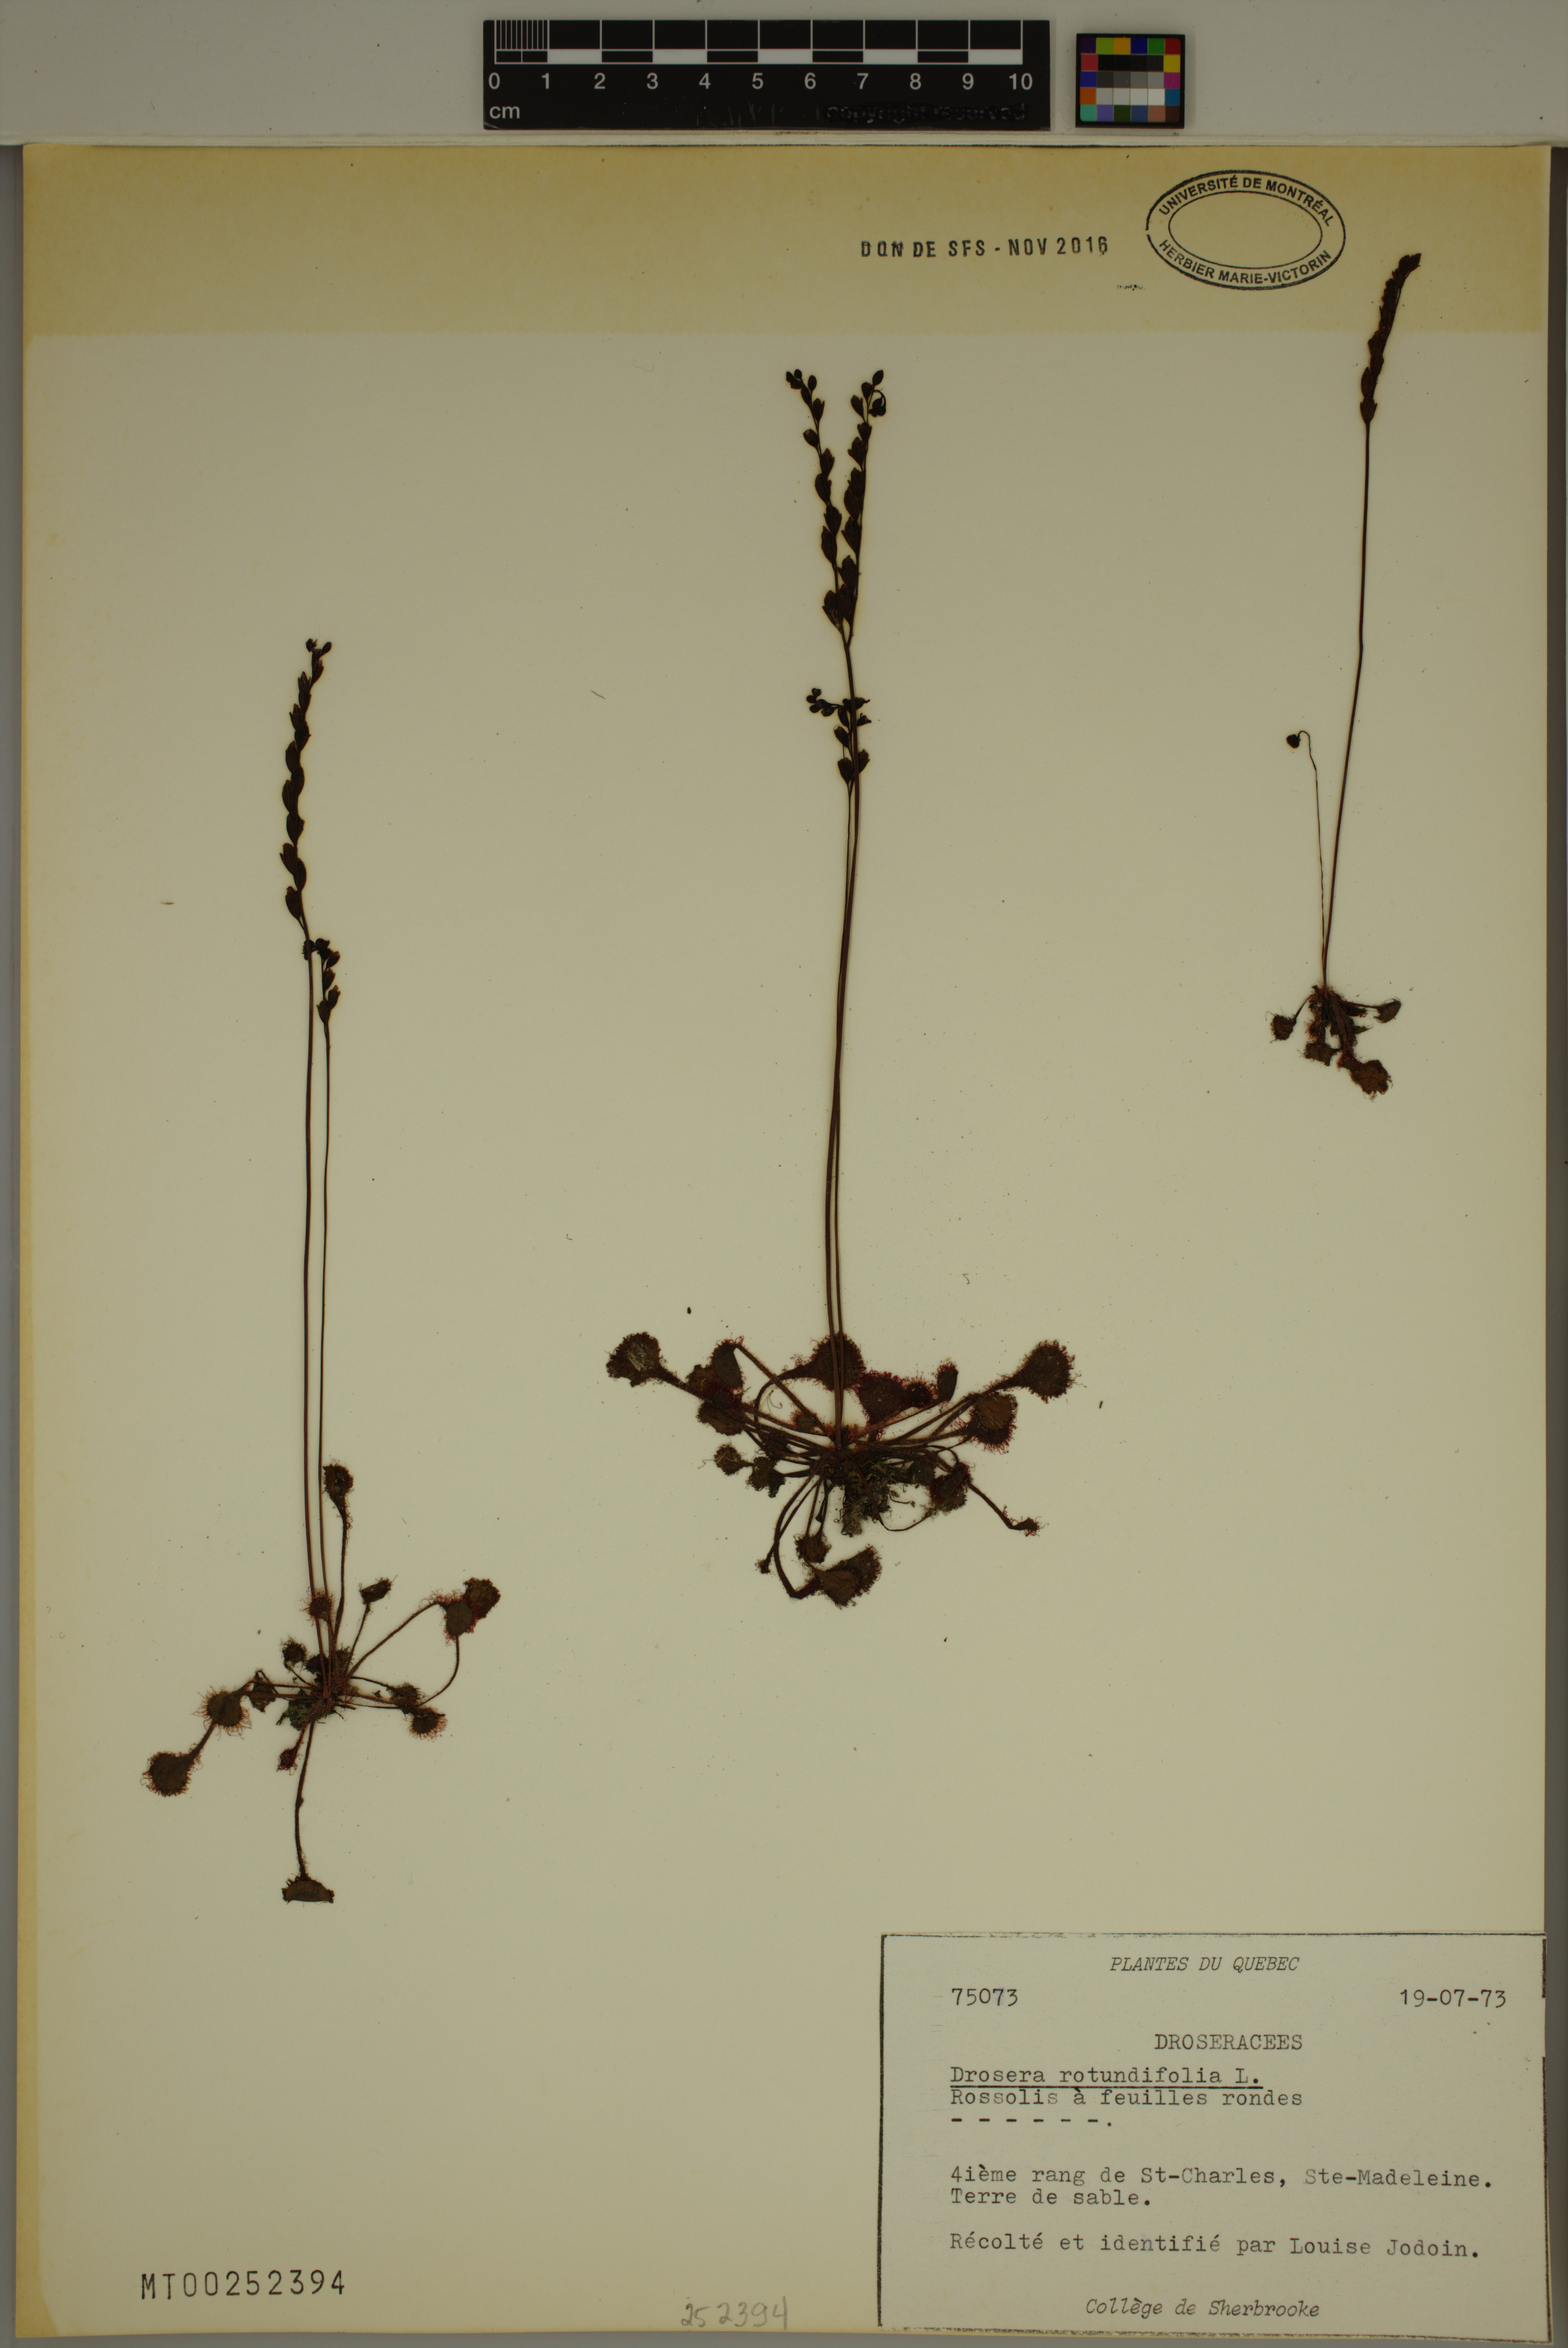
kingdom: Plantae
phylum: Tracheophyta
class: Magnoliopsida
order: Caryophyllales
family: Droseraceae
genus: Drosera
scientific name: Drosera rotundifolia
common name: Round-leaved sundew
